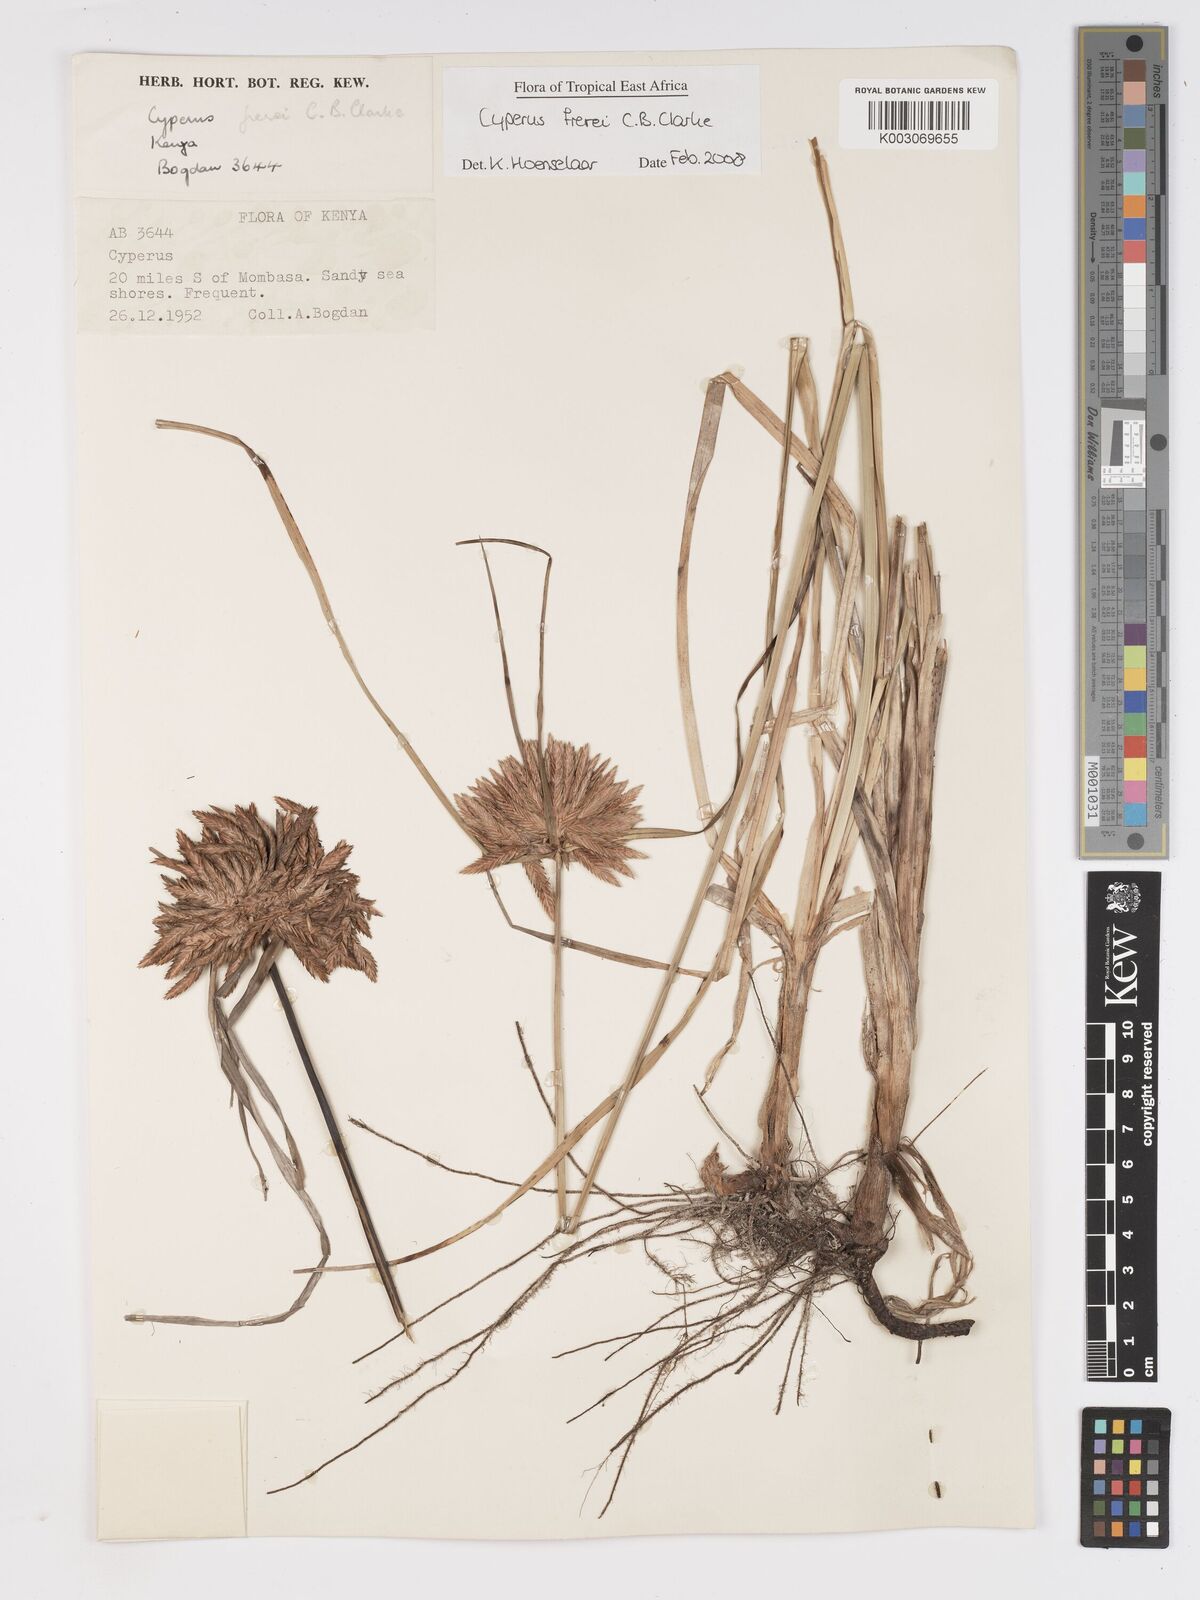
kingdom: Plantae
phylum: Tracheophyta
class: Liliopsida
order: Poales
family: Cyperaceae
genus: Cyperus
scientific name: Cyperus crassipes
